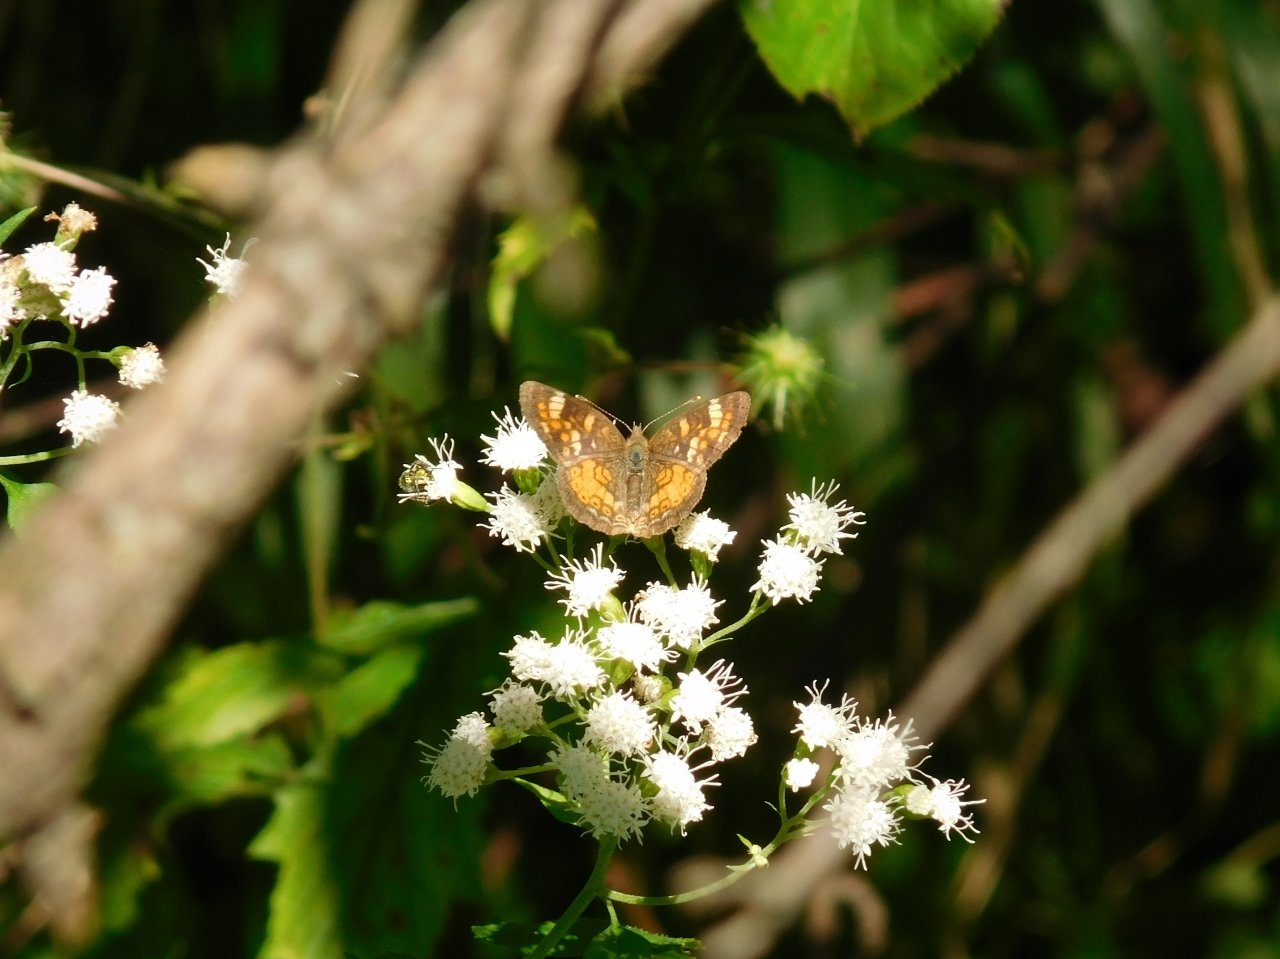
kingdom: Animalia
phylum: Arthropoda
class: Insecta
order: Lepidoptera
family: Nymphalidae
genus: Phyciodes
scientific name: Phyciodes tharos
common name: Northern Crescent
